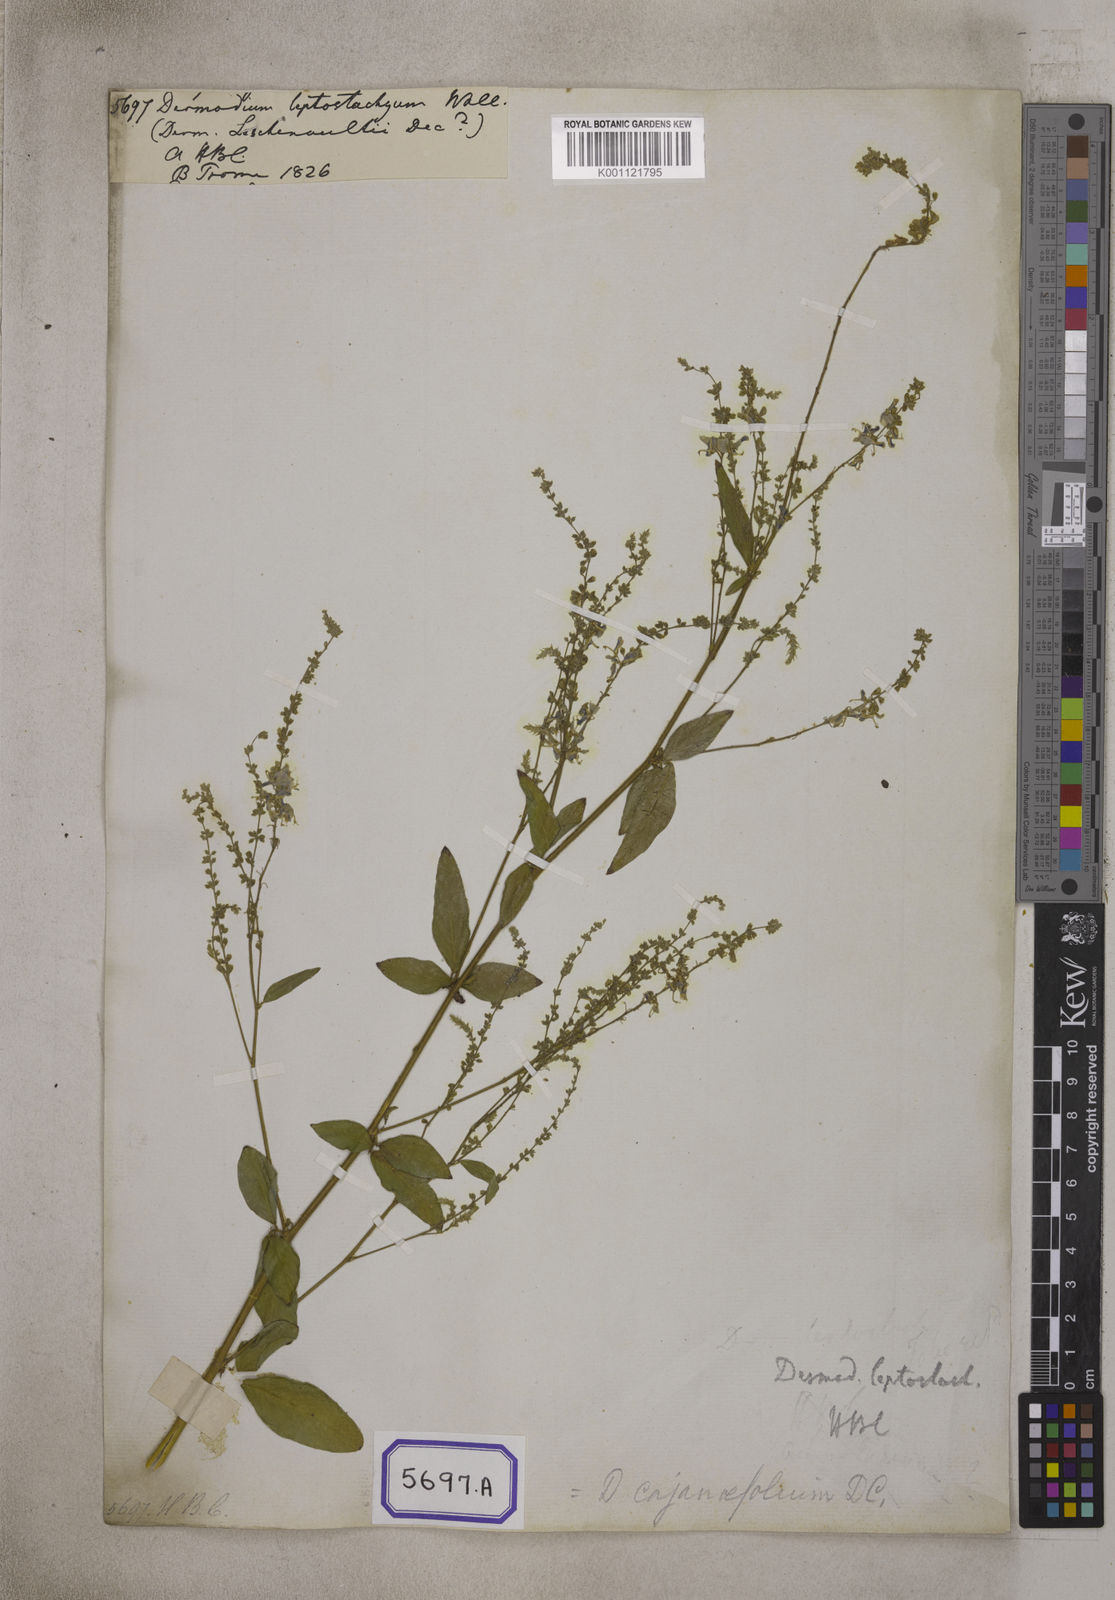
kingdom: Plantae
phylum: Tracheophyta
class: Magnoliopsida
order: Fabales
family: Fabaceae
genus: Desmodium
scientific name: Desmodium
